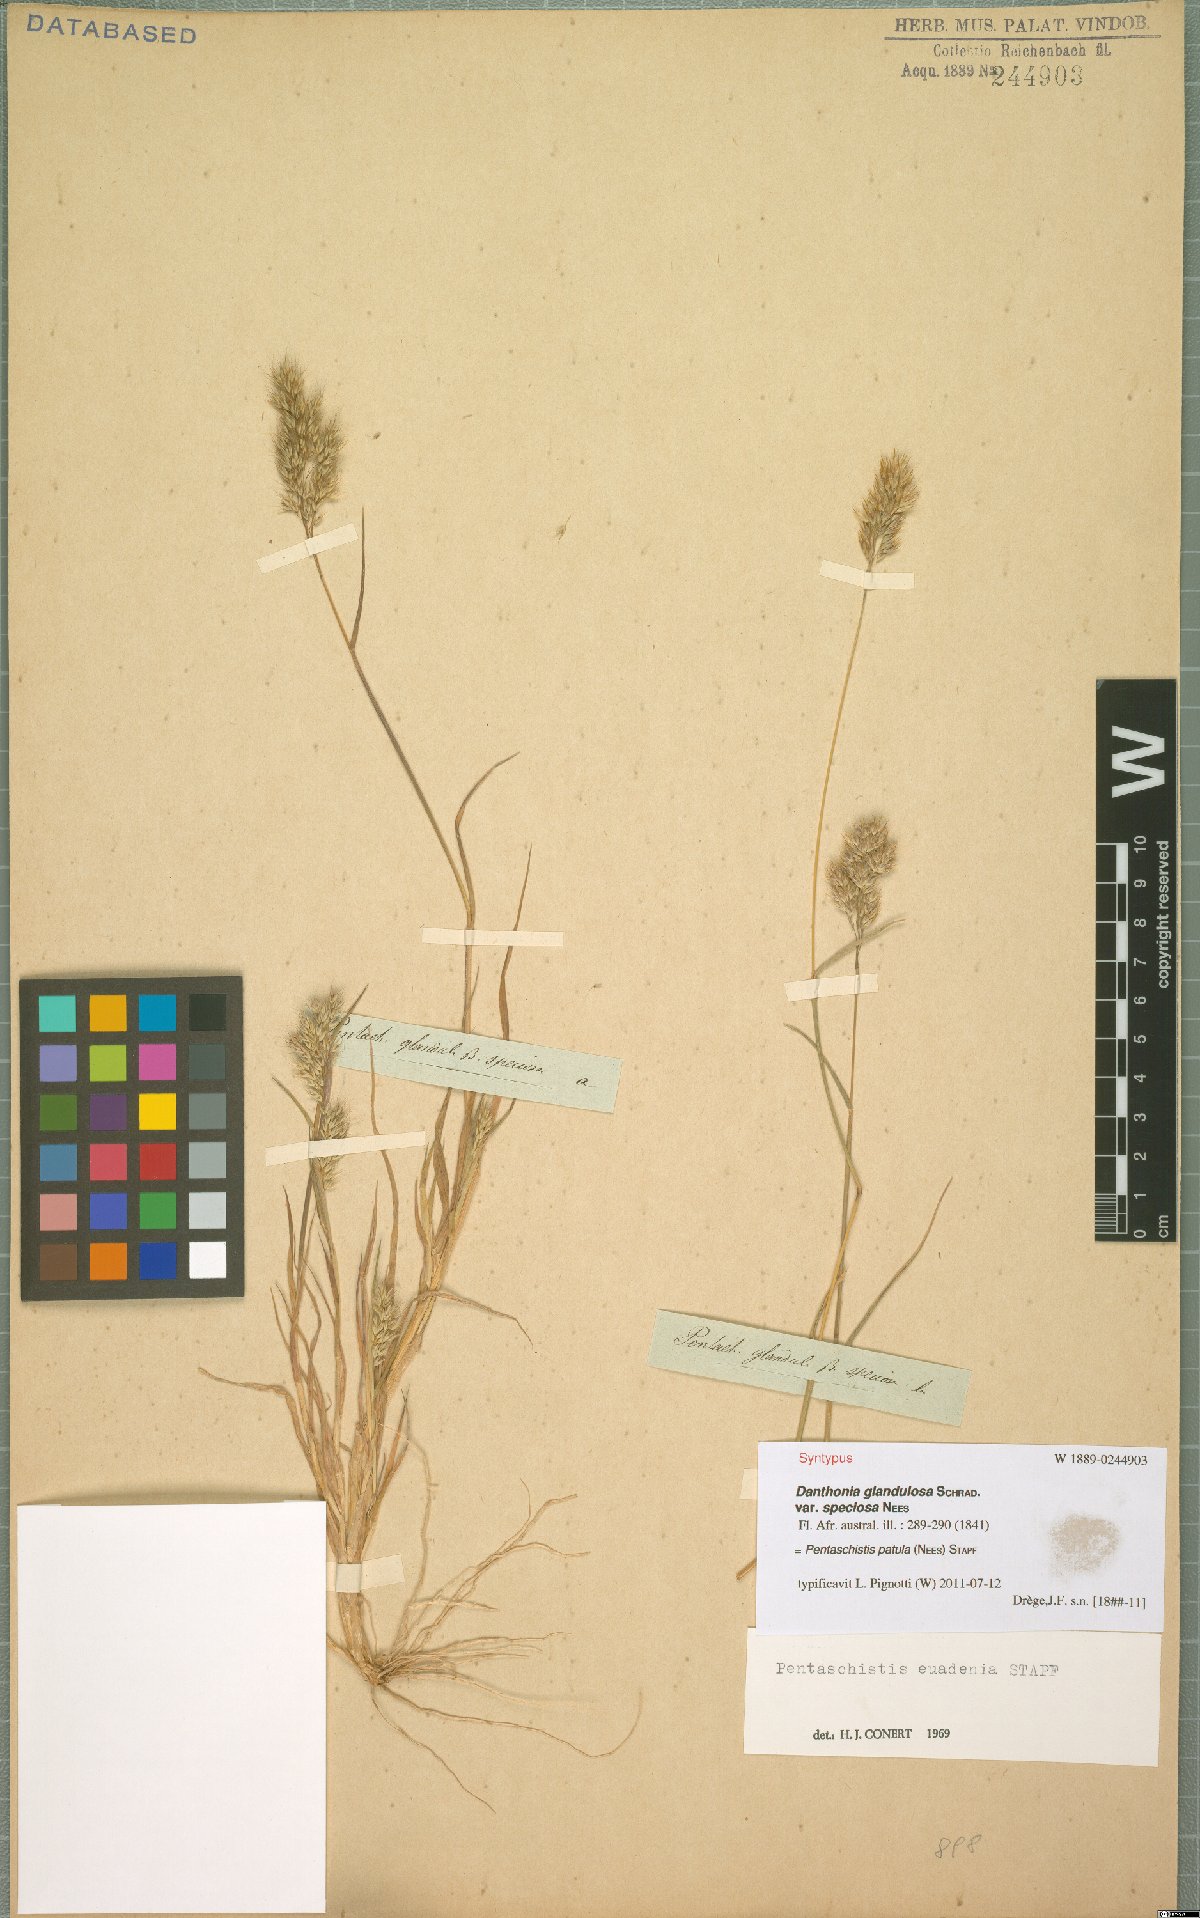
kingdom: Plantae
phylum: Tracheophyta
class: Liliopsida
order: Poales
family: Poaceae
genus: Pentameris
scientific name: Pentameris patula
